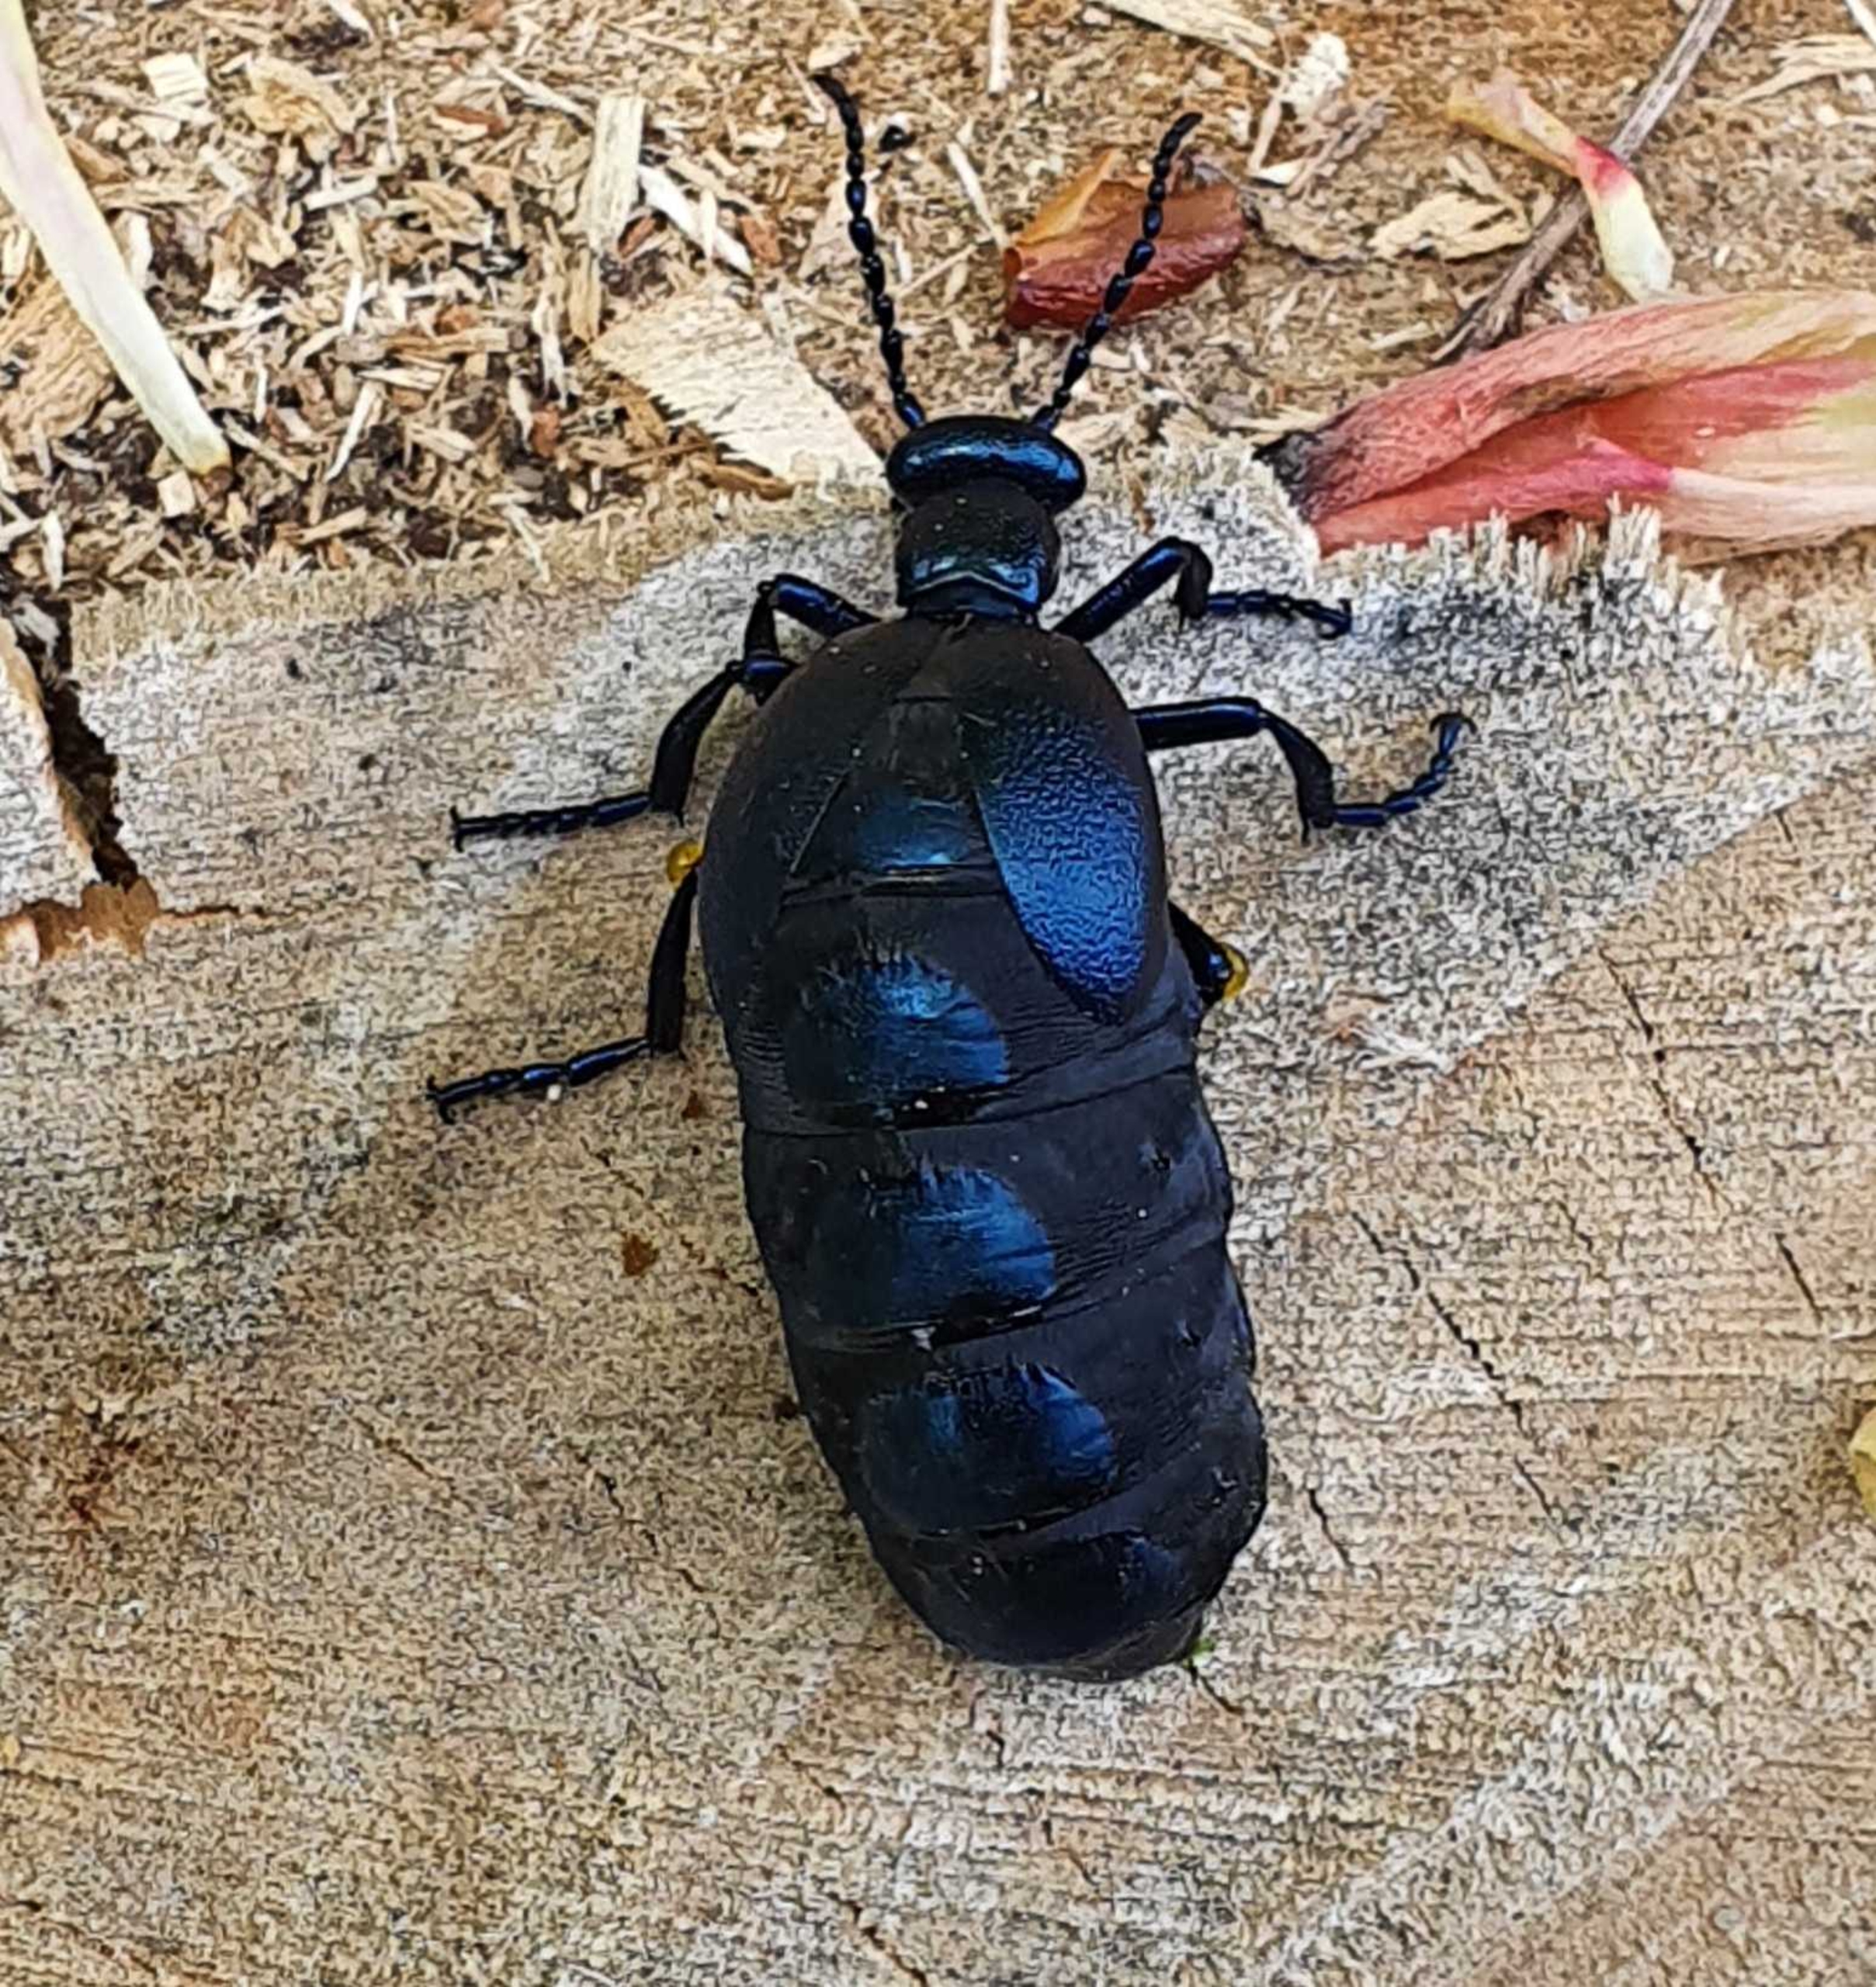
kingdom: Animalia
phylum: Arthropoda
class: Insecta
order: Coleoptera
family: Meloidae
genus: Meloe
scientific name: Meloe violaceus
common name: Blå oliebille
